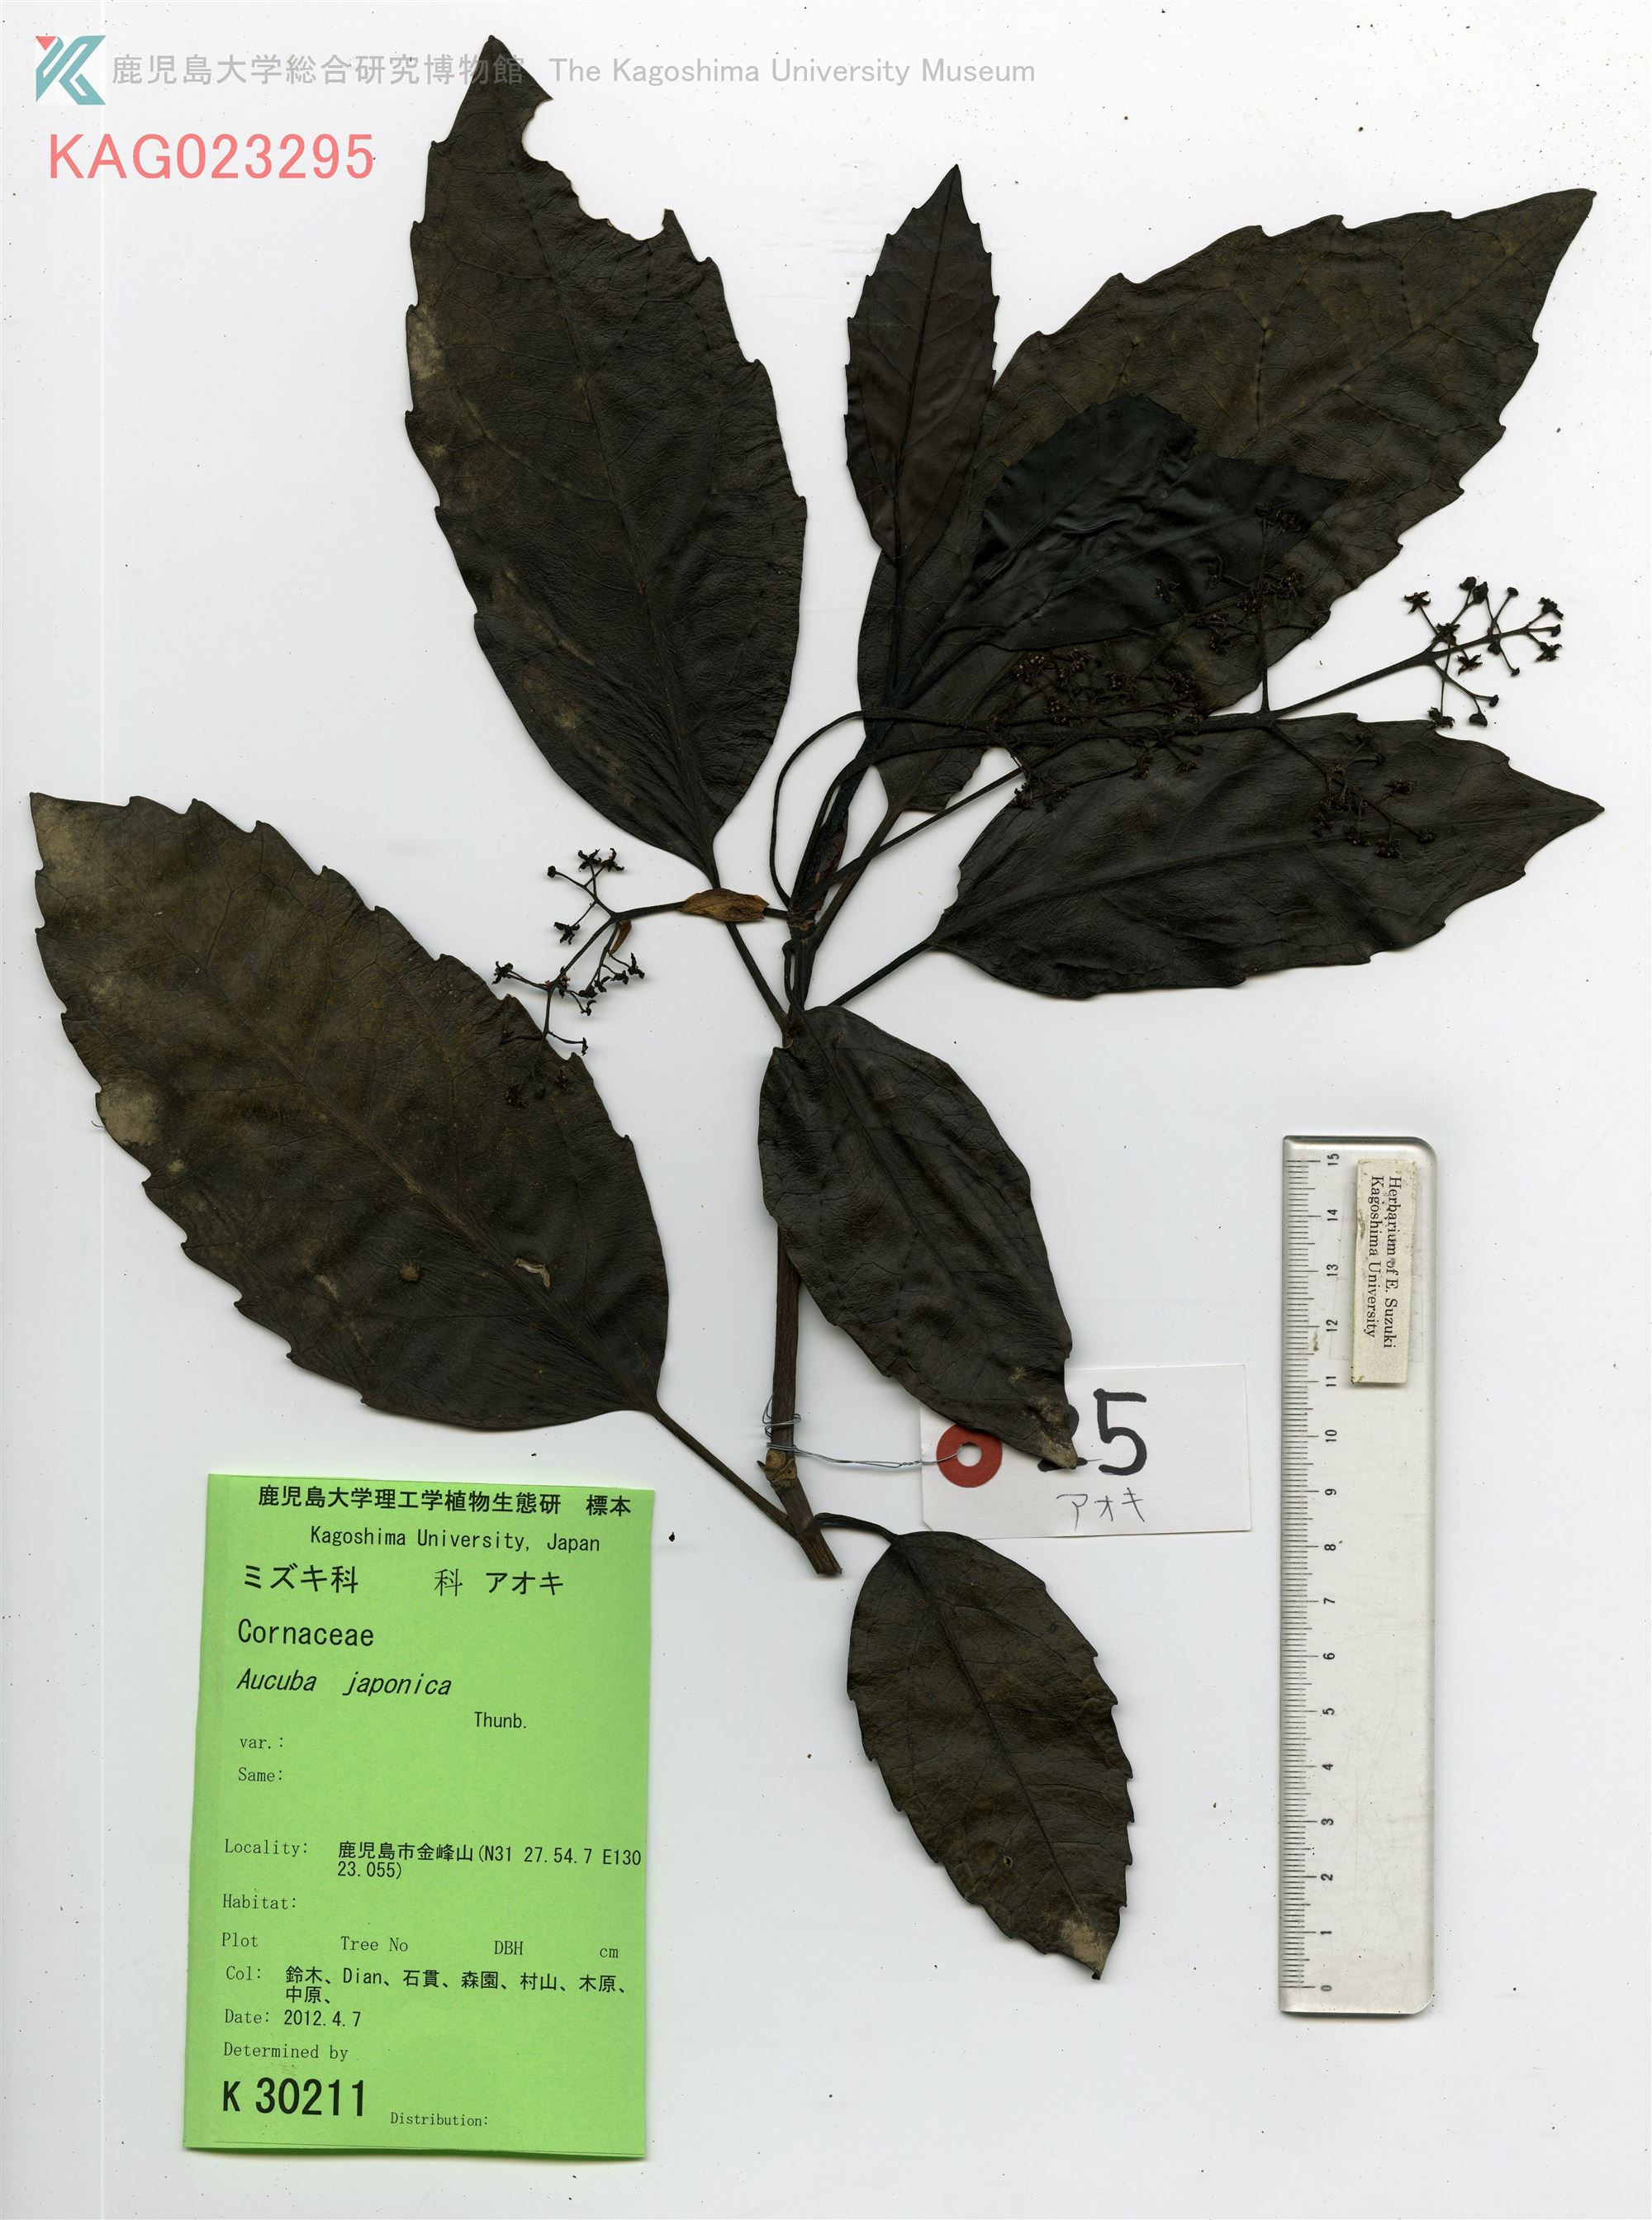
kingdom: Plantae
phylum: Tracheophyta
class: Magnoliopsida
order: Garryales
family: Garryaceae
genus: Aucuba
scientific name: Aucuba japonica
